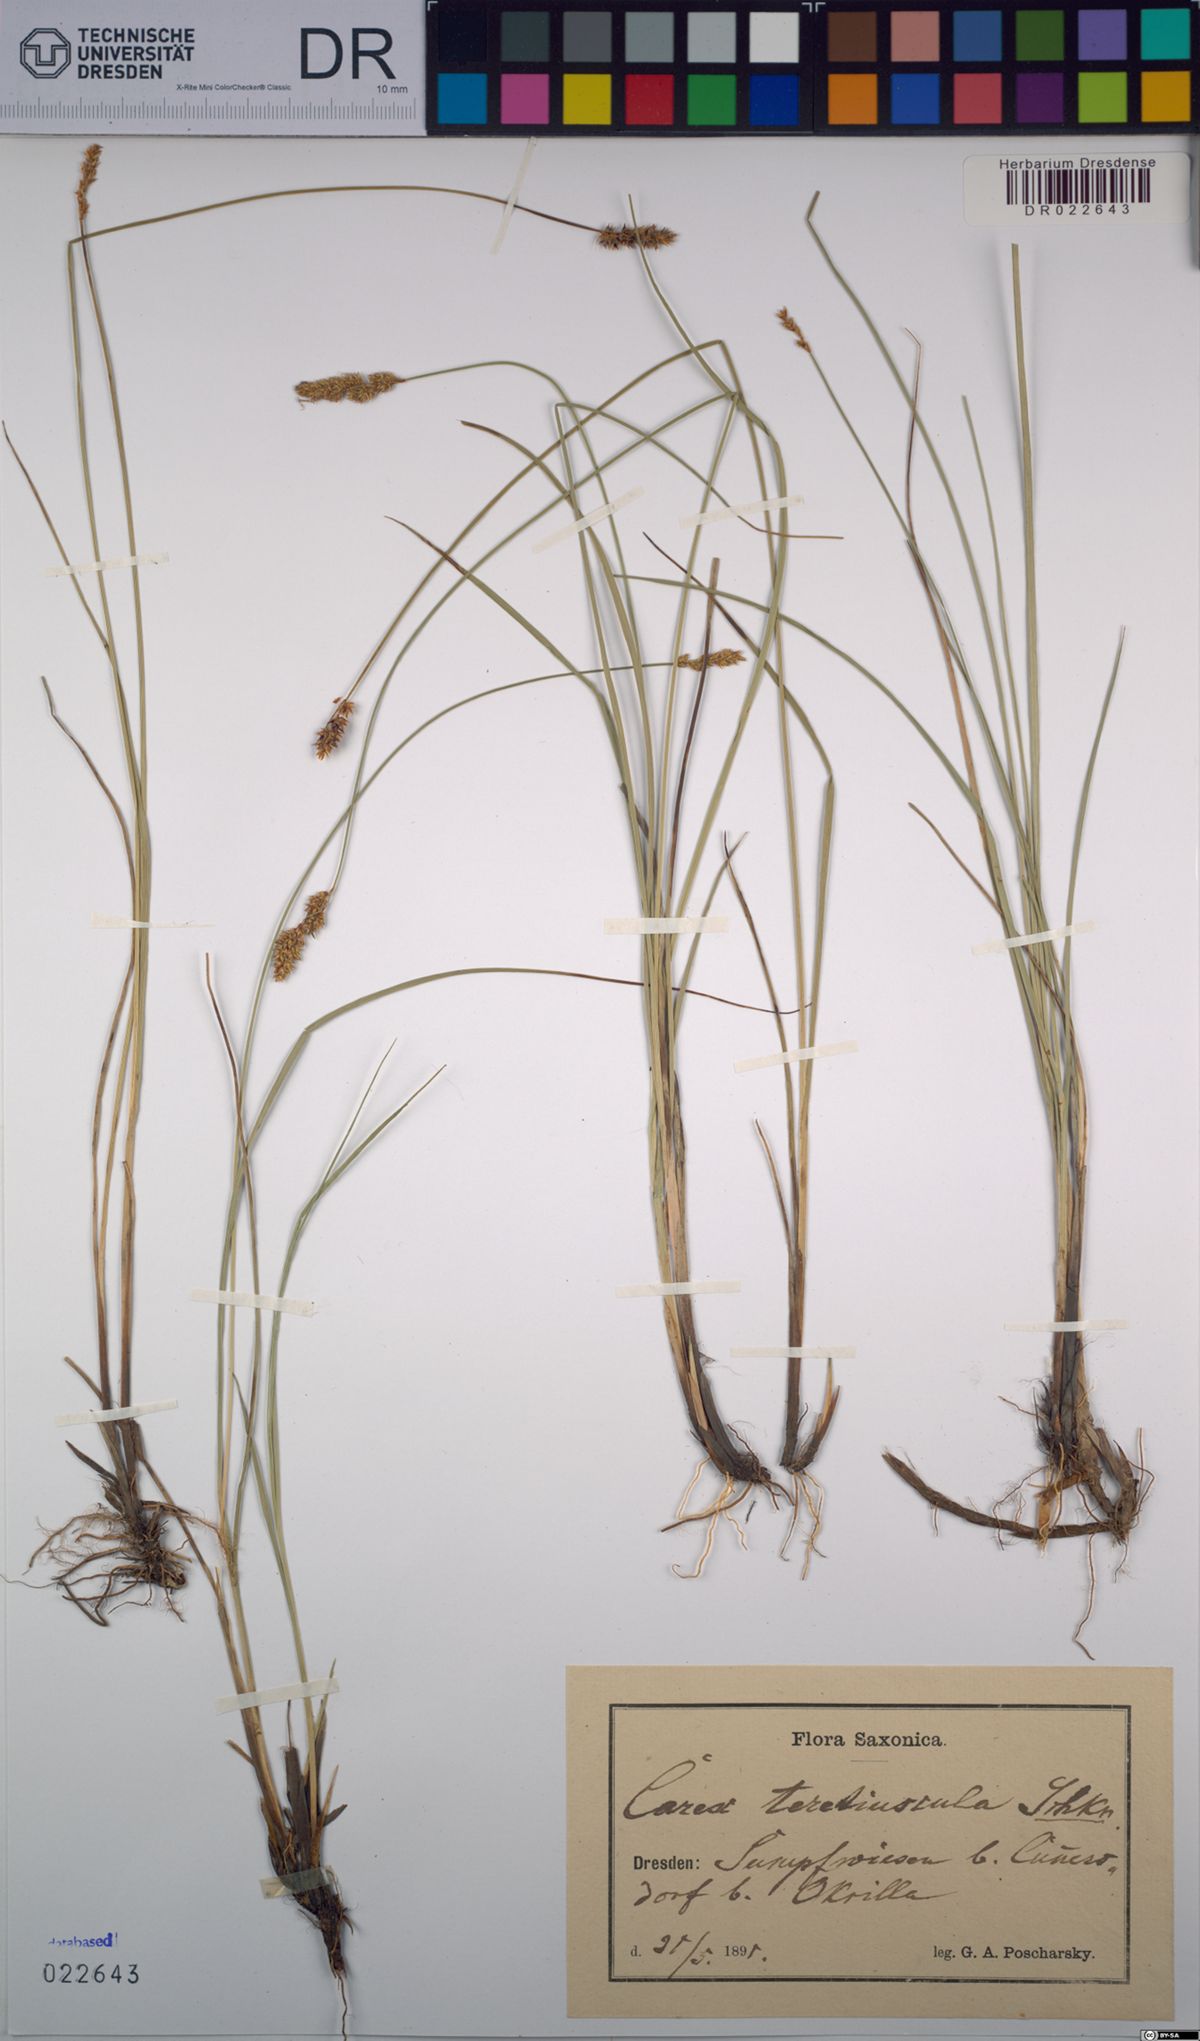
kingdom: Plantae
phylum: Tracheophyta
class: Liliopsida
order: Poales
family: Cyperaceae
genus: Carex
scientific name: Carex diandra
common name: Lesser tussock-sedge
